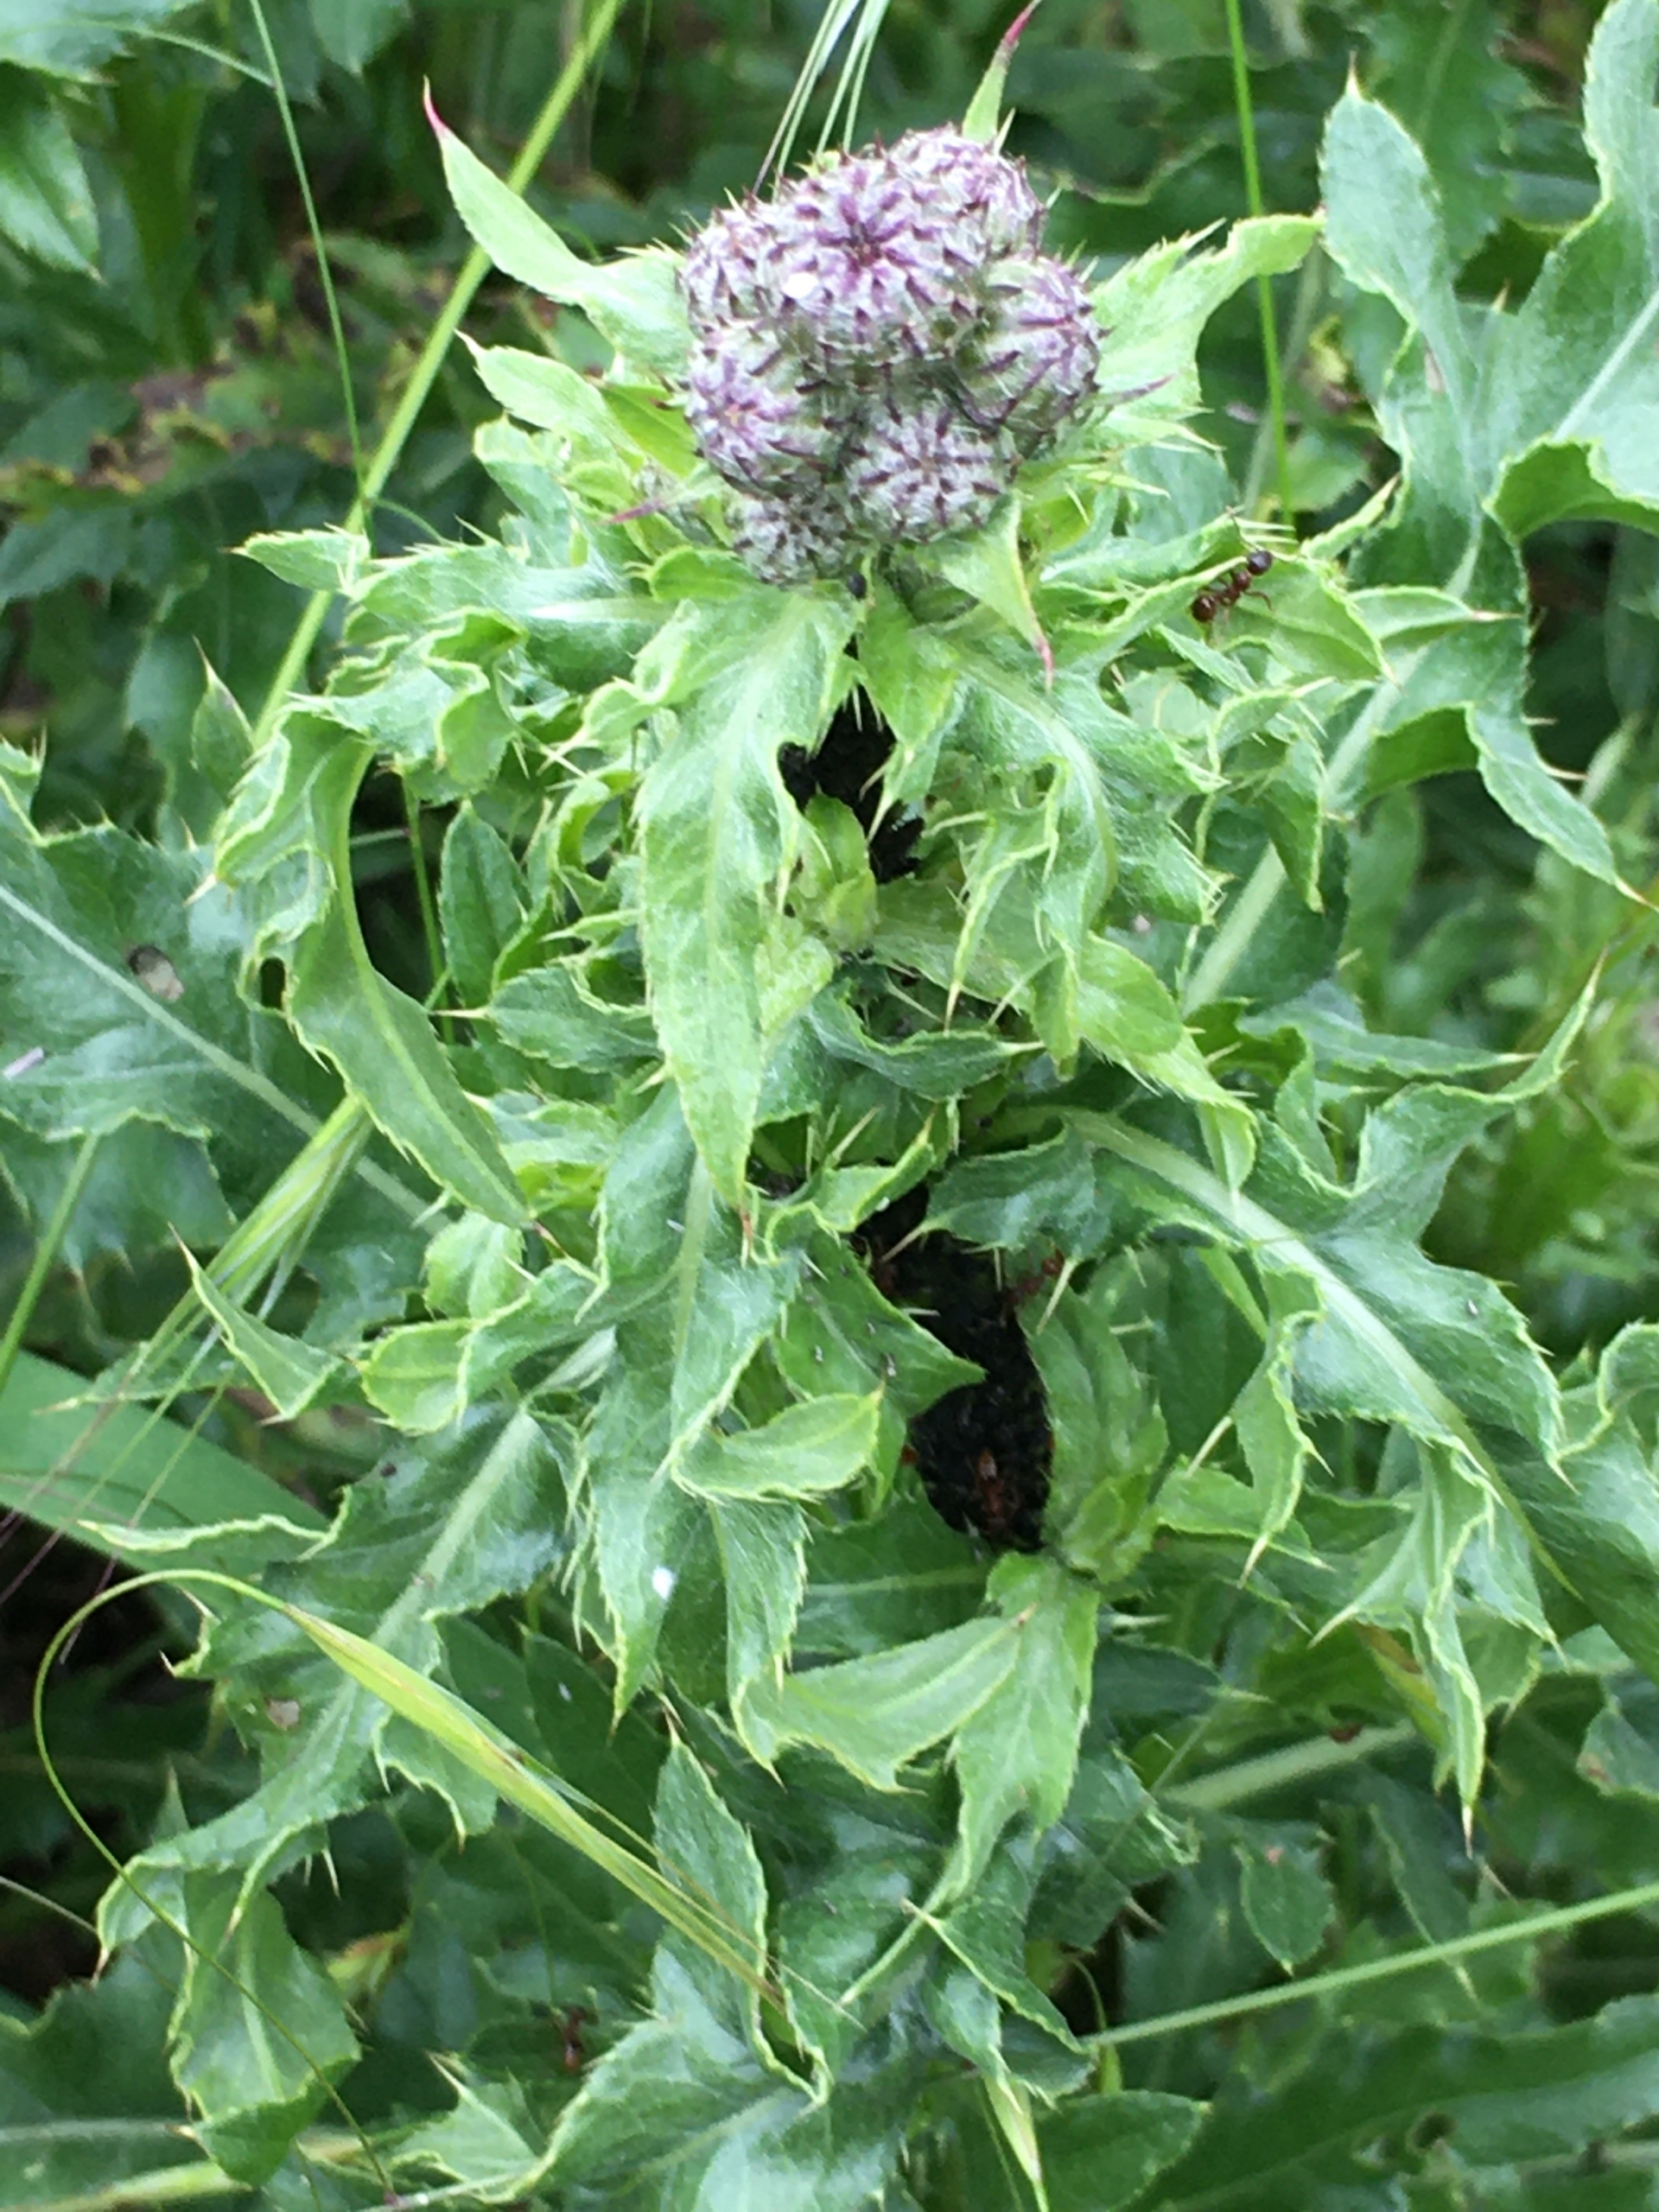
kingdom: Plantae
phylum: Tracheophyta
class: Magnoliopsida
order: Asterales
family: Asteraceae
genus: Cirsium
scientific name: Cirsium arvense
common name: Ager-tidsel
